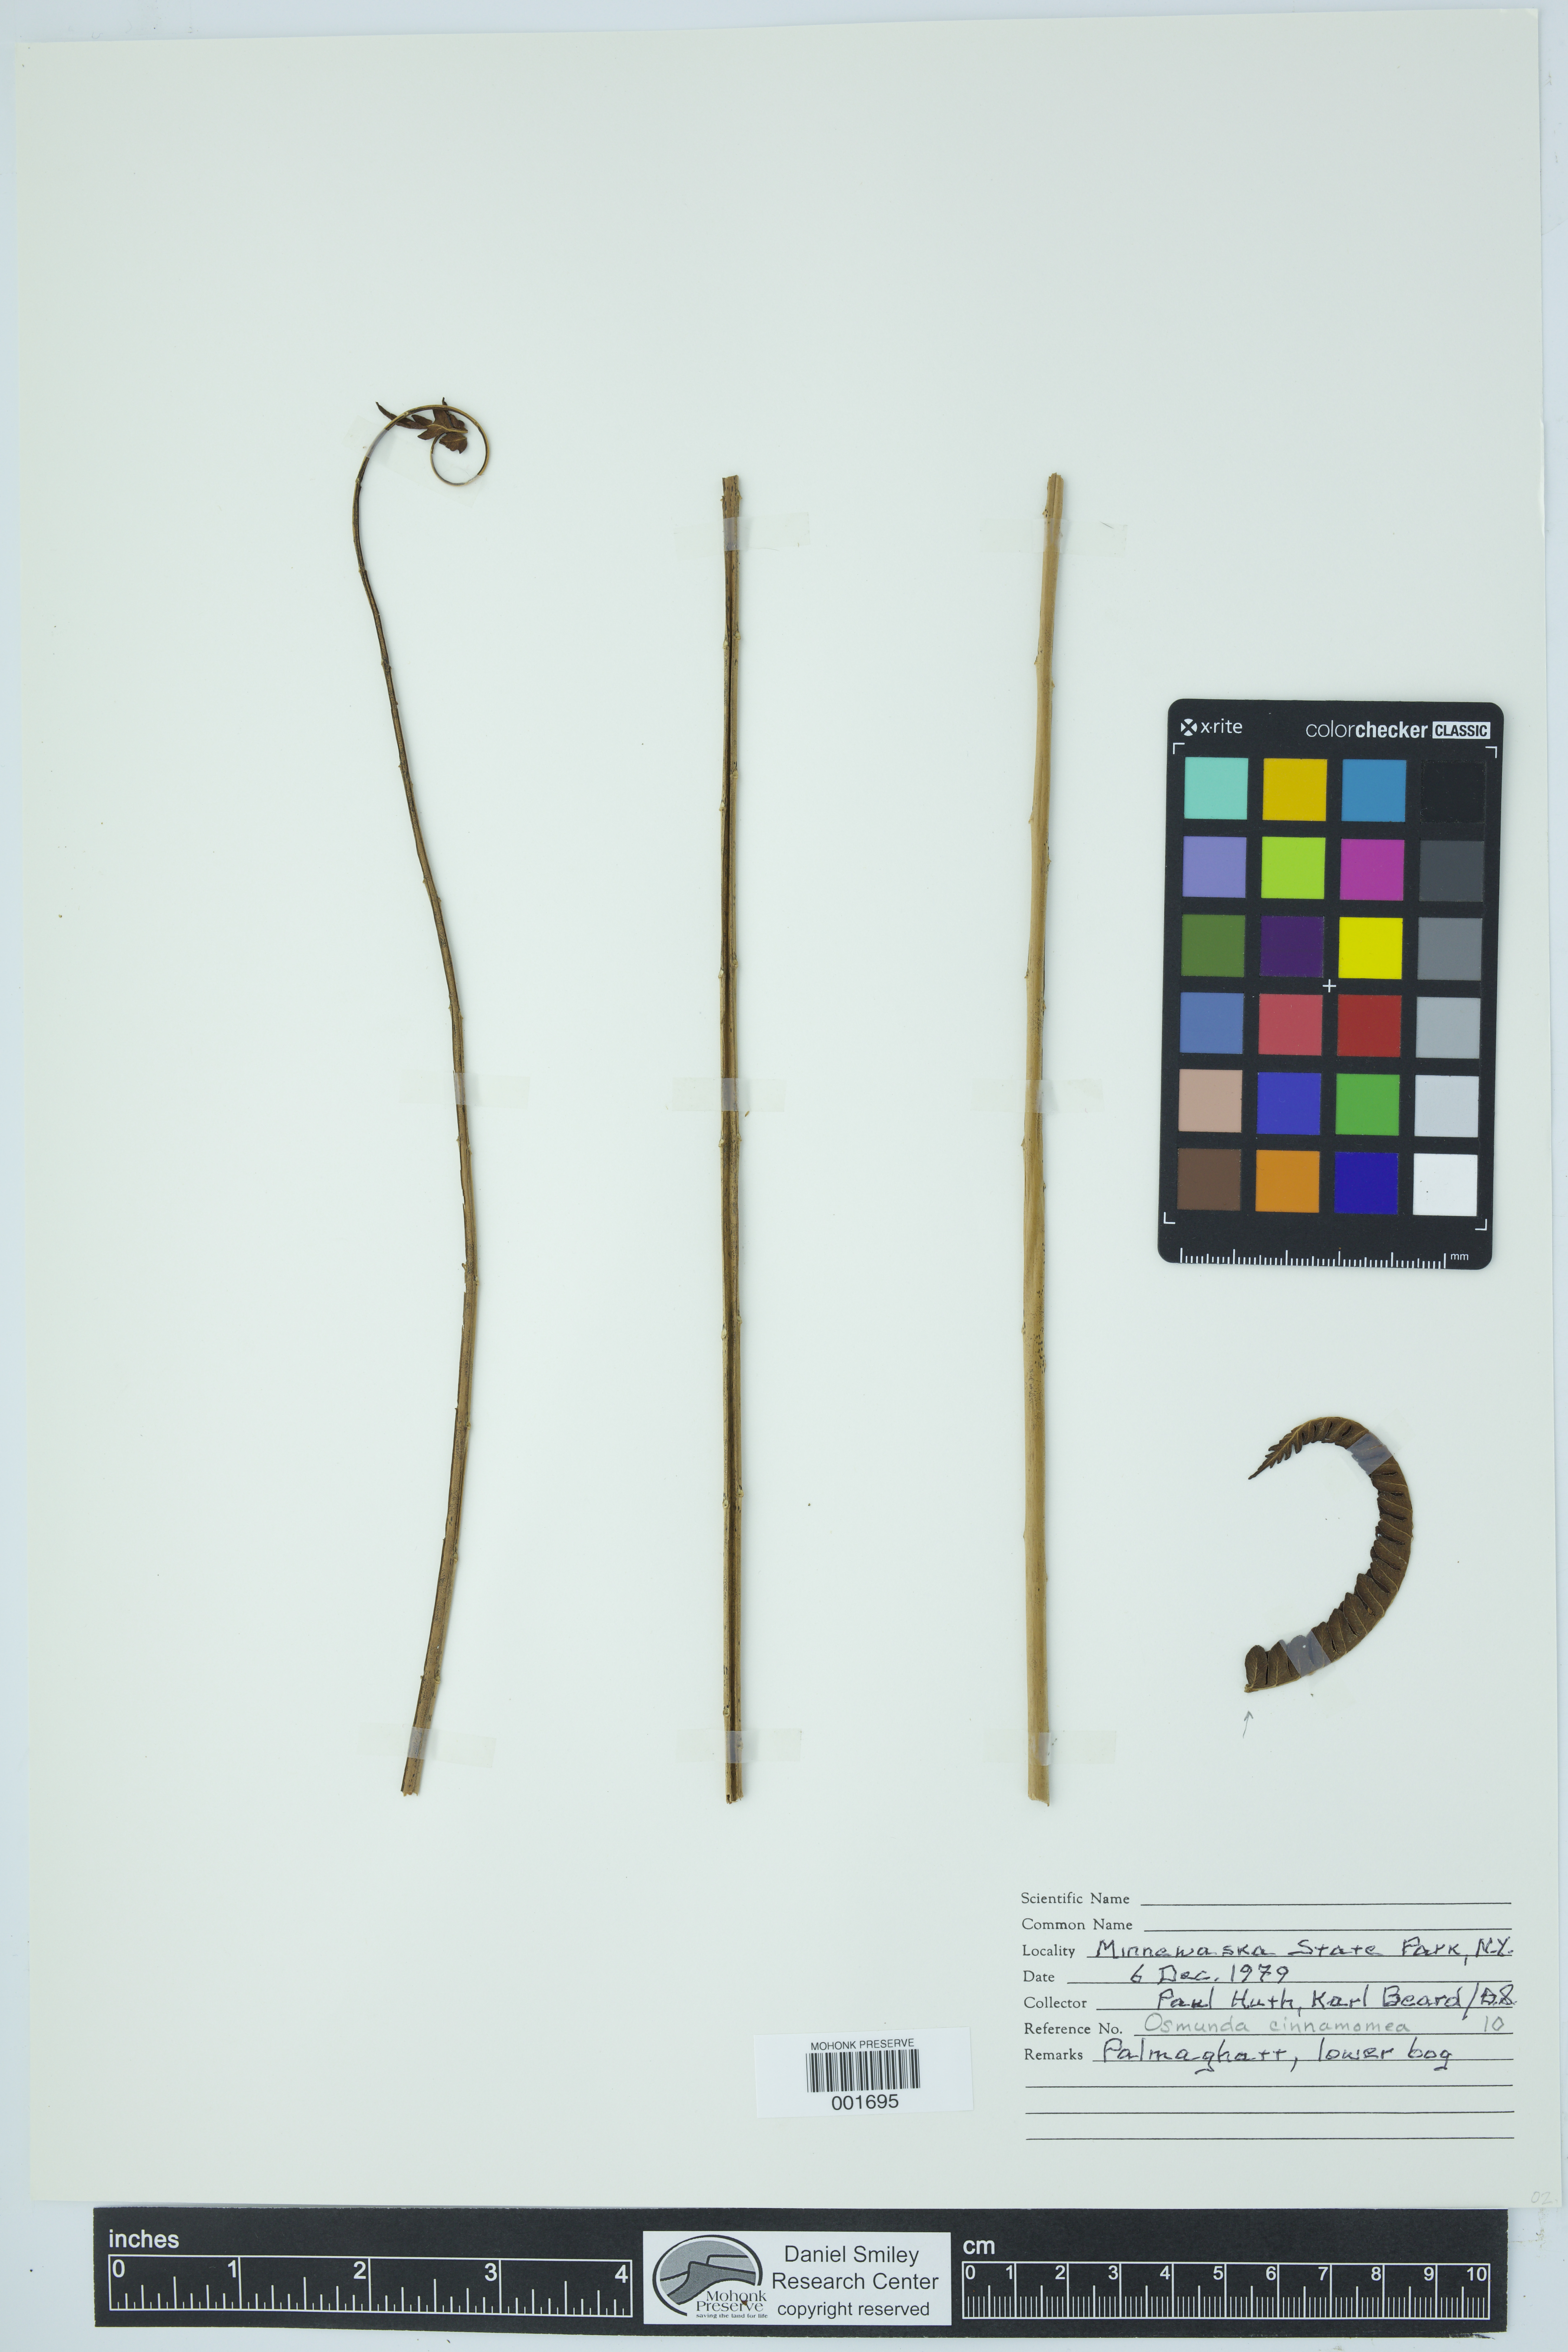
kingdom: Plantae
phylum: Tracheophyta
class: Polypodiopsida
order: Osmundales
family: Osmundaceae
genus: Osmundastrum
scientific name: Osmundastrum cinnamomeum
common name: Cinnamon fern
